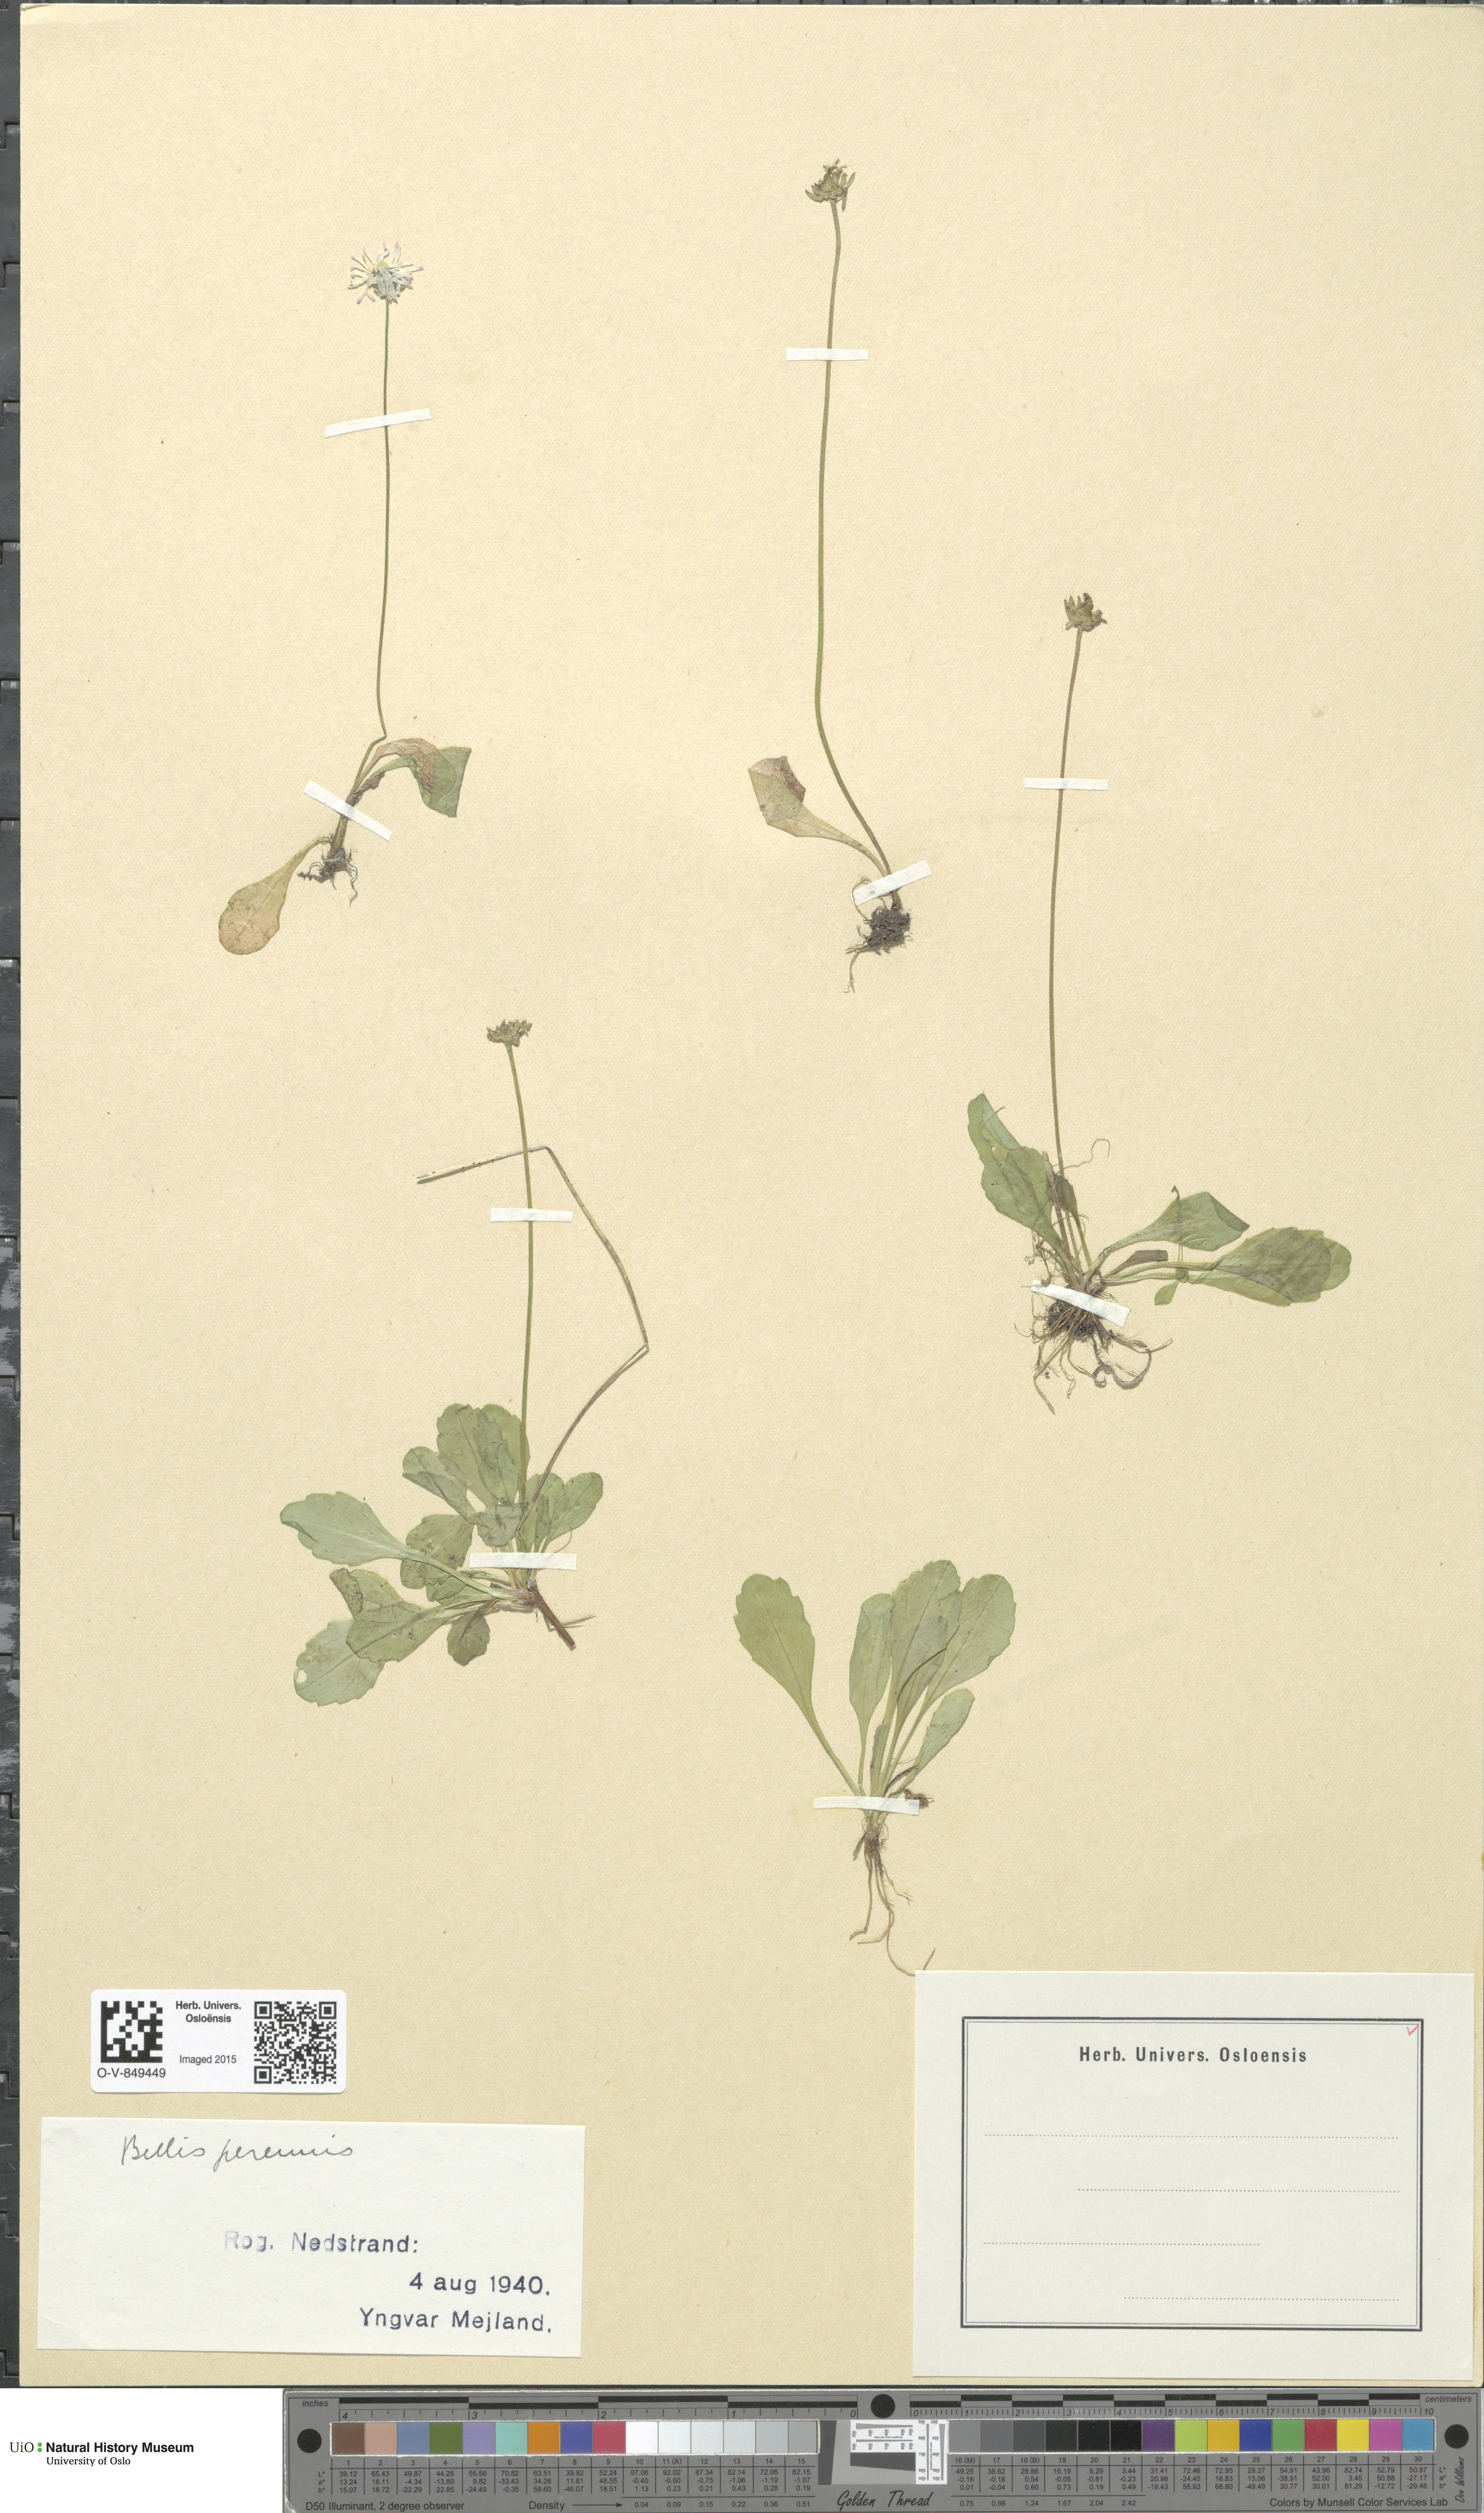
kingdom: Plantae
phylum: Tracheophyta
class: Magnoliopsida
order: Asterales
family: Asteraceae
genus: Bellis
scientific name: Bellis perennis
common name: Lawndaisy
